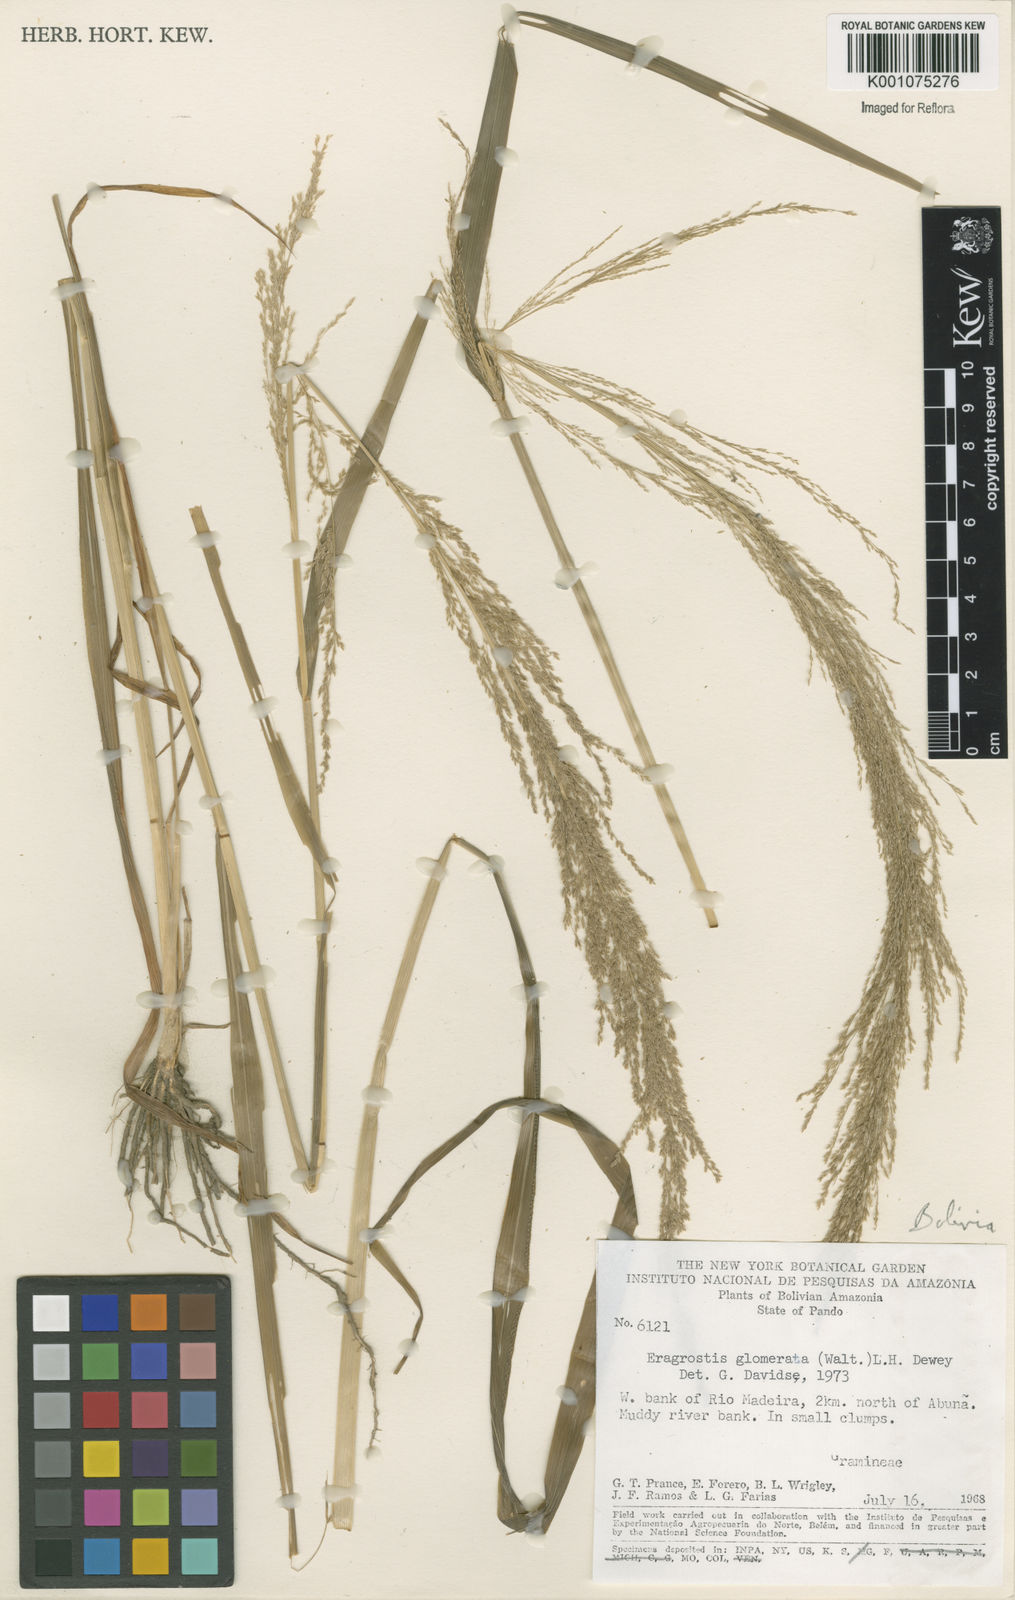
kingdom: Plantae
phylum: Tracheophyta
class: Liliopsida
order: Poales
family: Poaceae
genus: Eragrostis
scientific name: Eragrostis japonica
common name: Pond lovegrass
